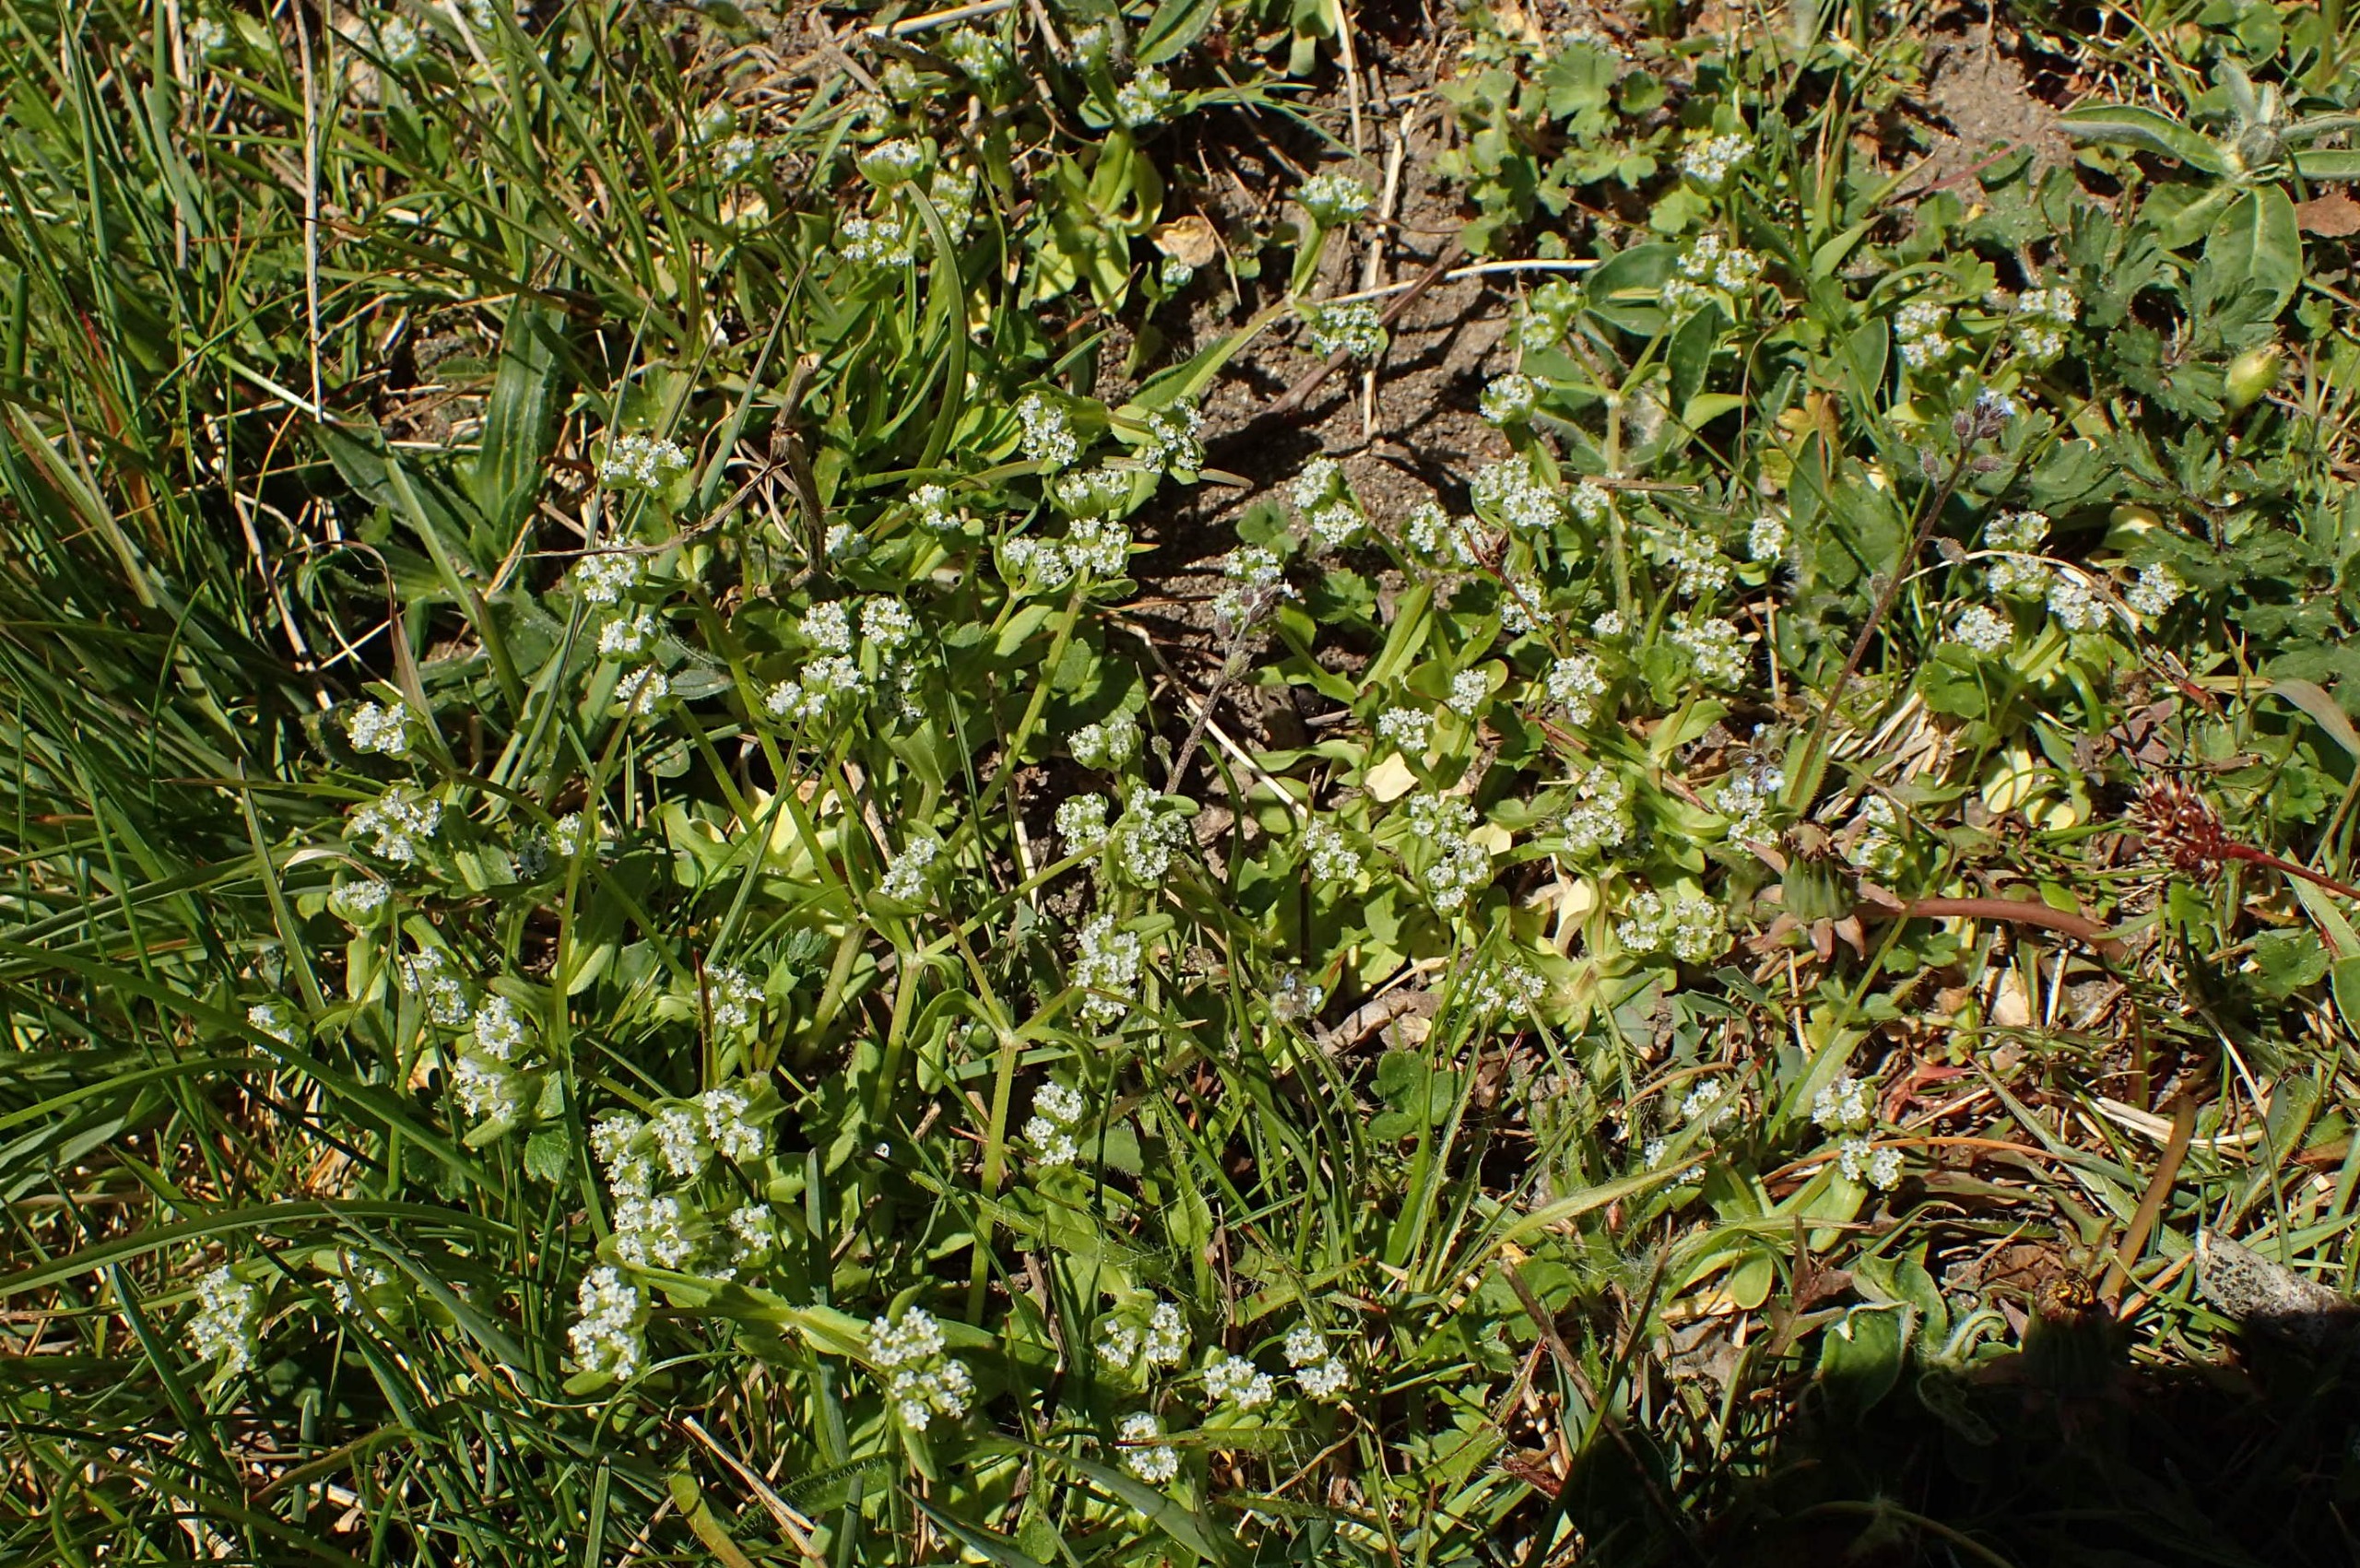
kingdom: Plantae
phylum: Tracheophyta
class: Magnoliopsida
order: Dipsacales
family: Caprifoliaceae
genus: Valerianella
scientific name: Valerianella locusta
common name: Tandfri vårsalat
